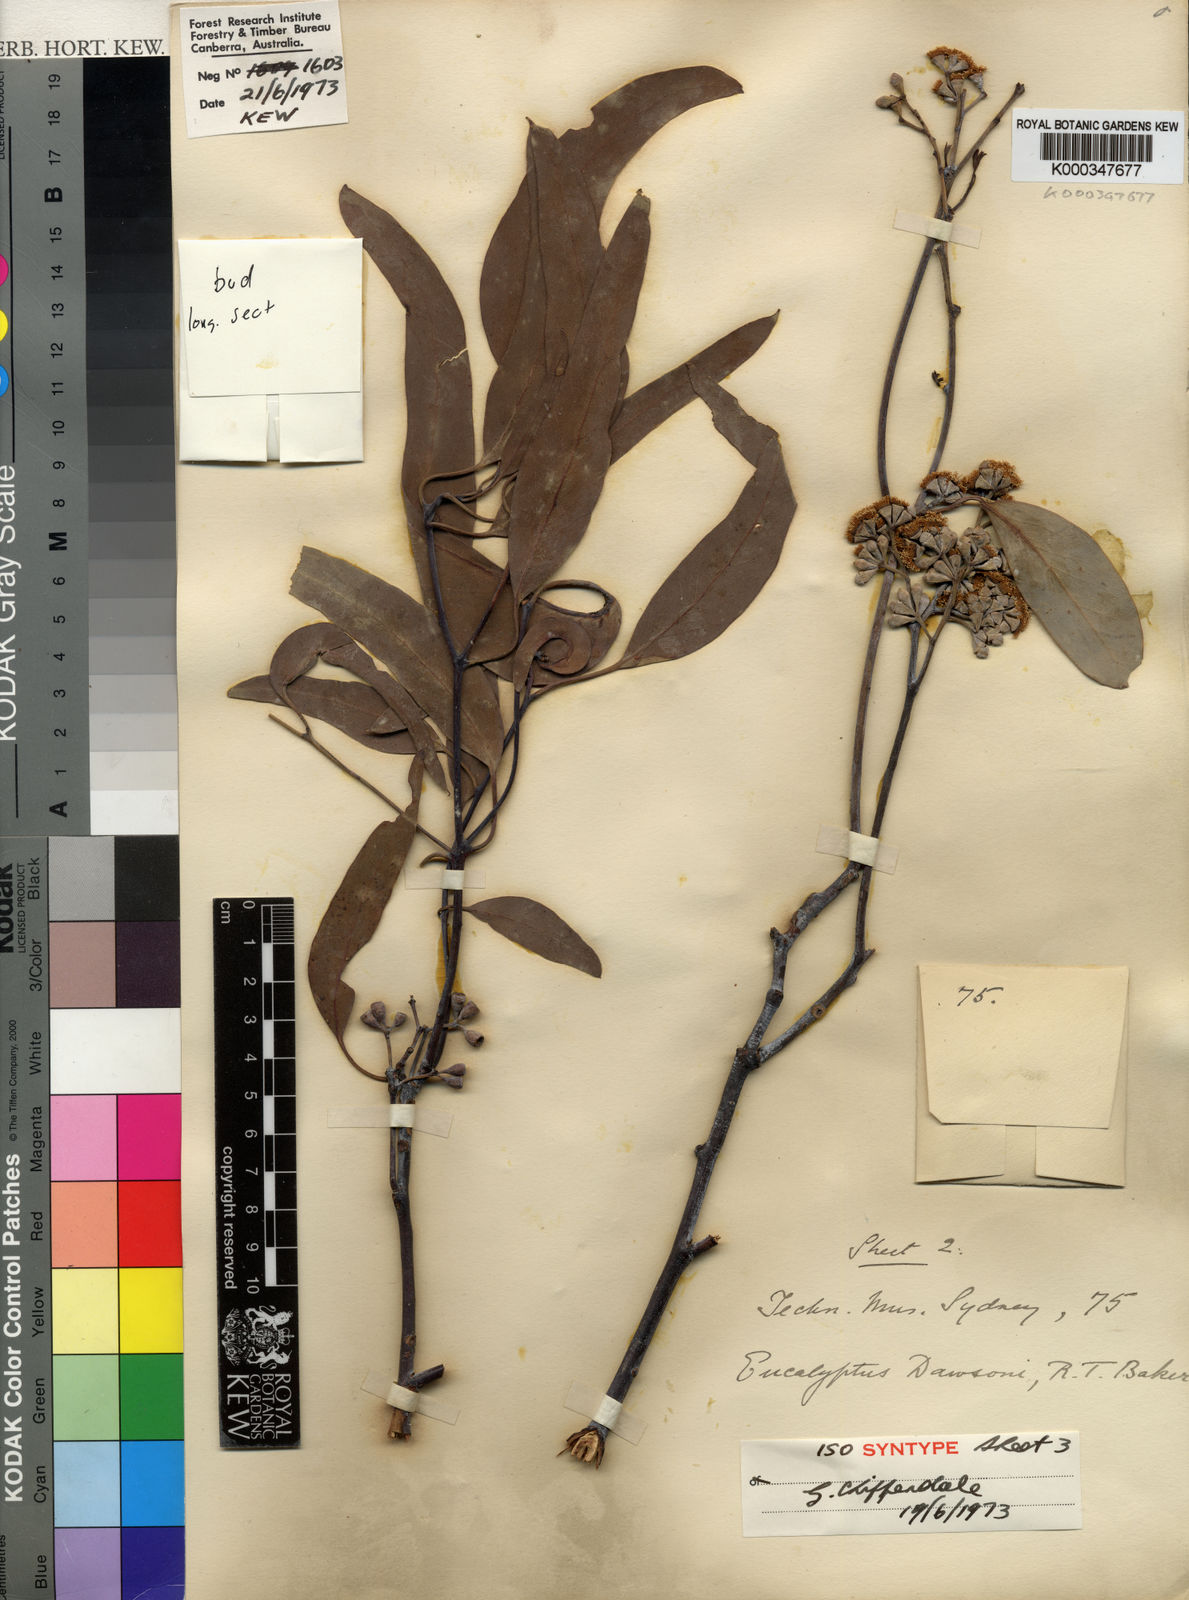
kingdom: Plantae
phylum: Tracheophyta
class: Magnoliopsida
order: Myrtales
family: Myrtaceae
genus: Eucalyptus
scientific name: Eucalyptus dawsonii
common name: Slaty-box
